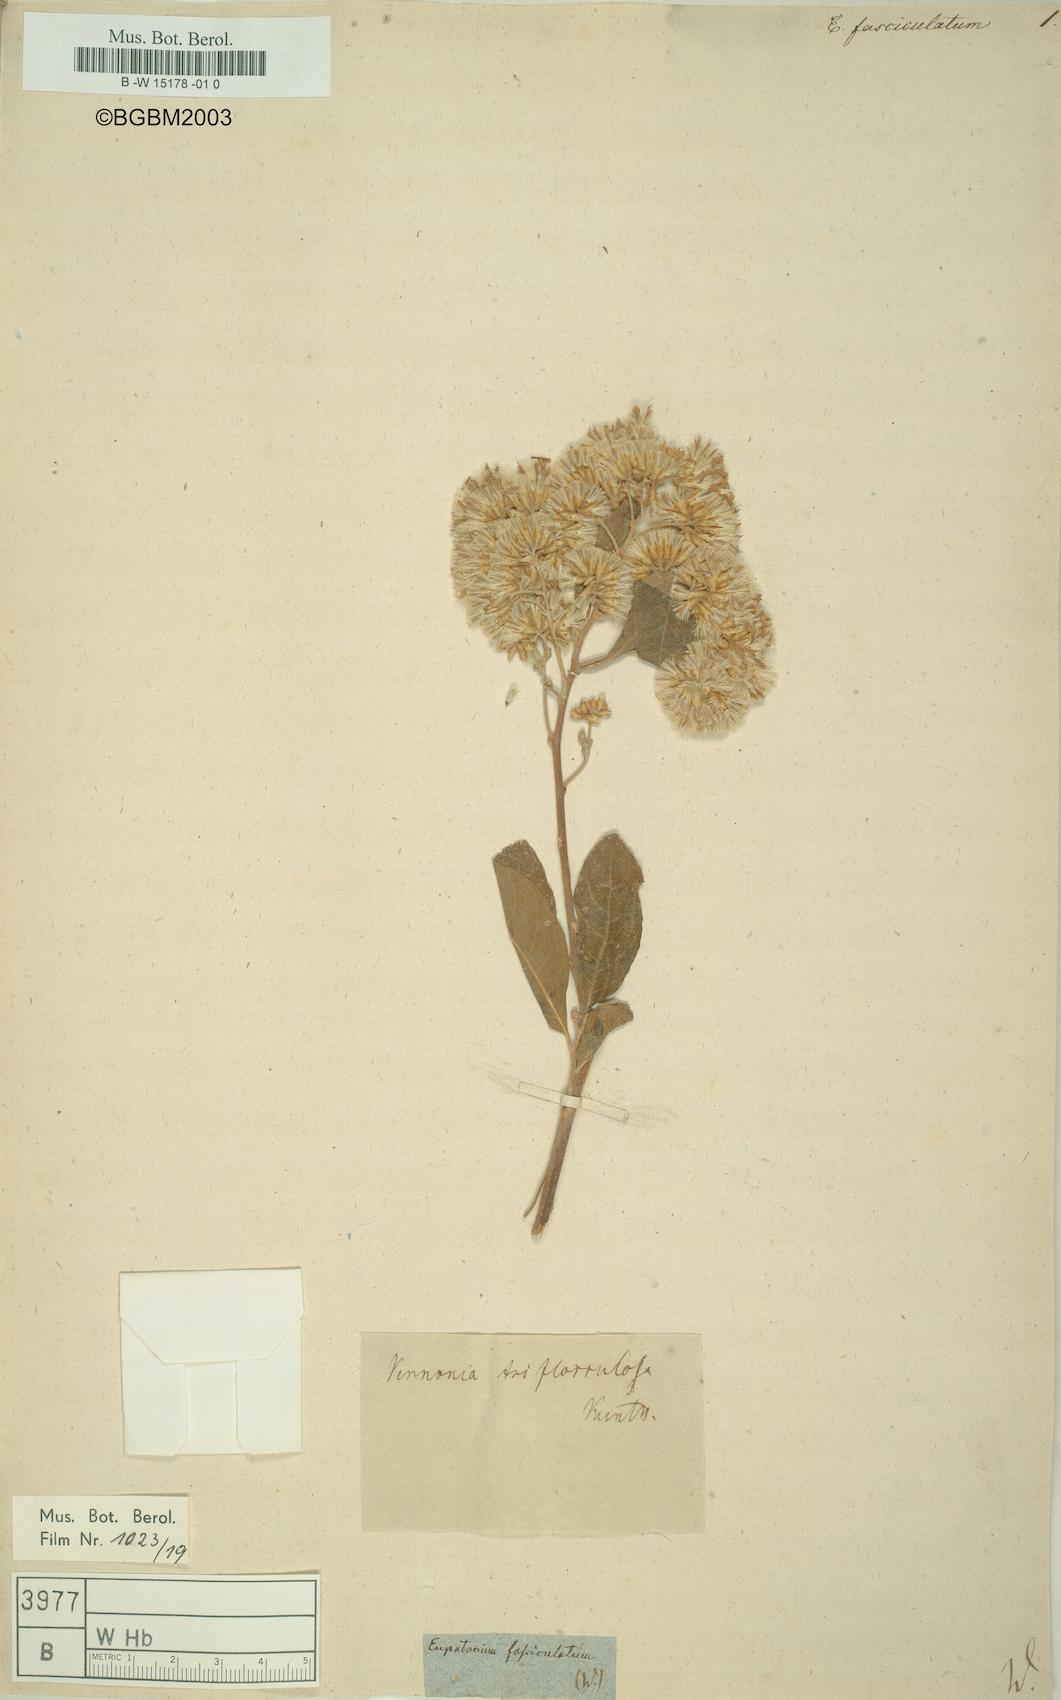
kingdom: Plantae
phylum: Tracheophyta
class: Magnoliopsida
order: Asterales
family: Asteraceae
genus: Chromolaena
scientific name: Chromolaena ivifolia
